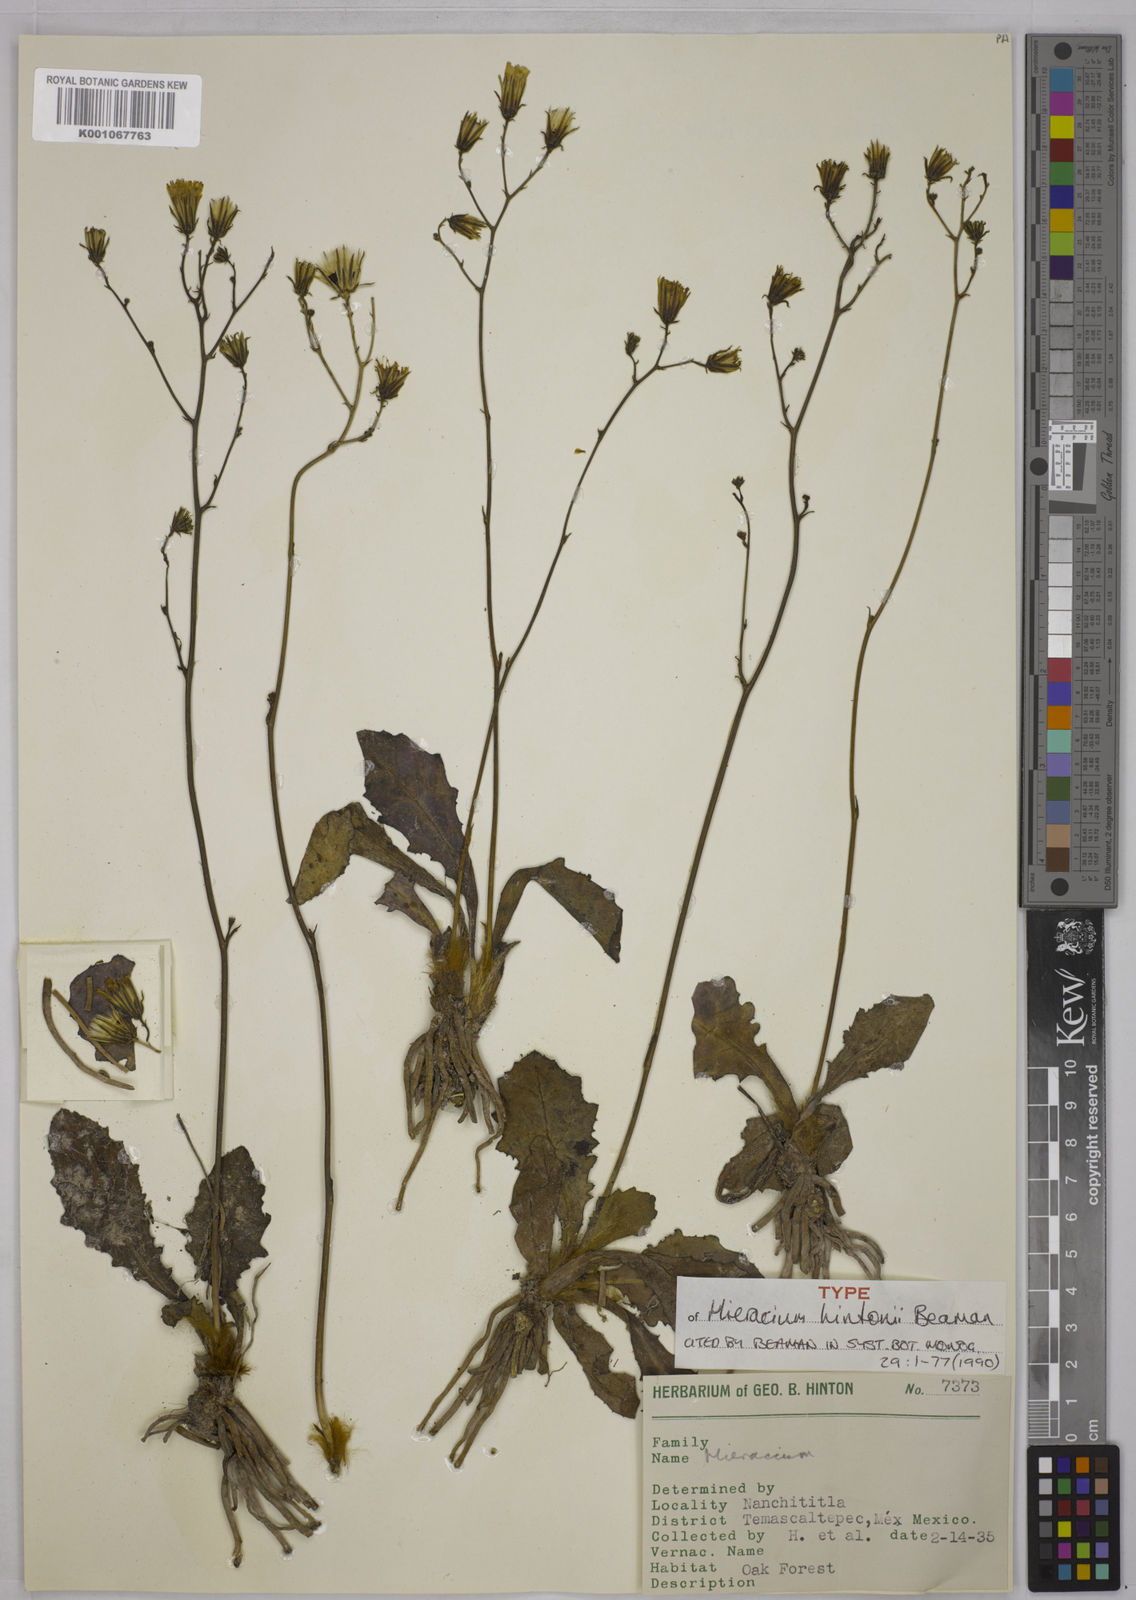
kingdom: Plantae
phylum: Tracheophyta
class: Magnoliopsida
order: Asterales
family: Asteraceae
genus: Hieracium
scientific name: Hieracium
